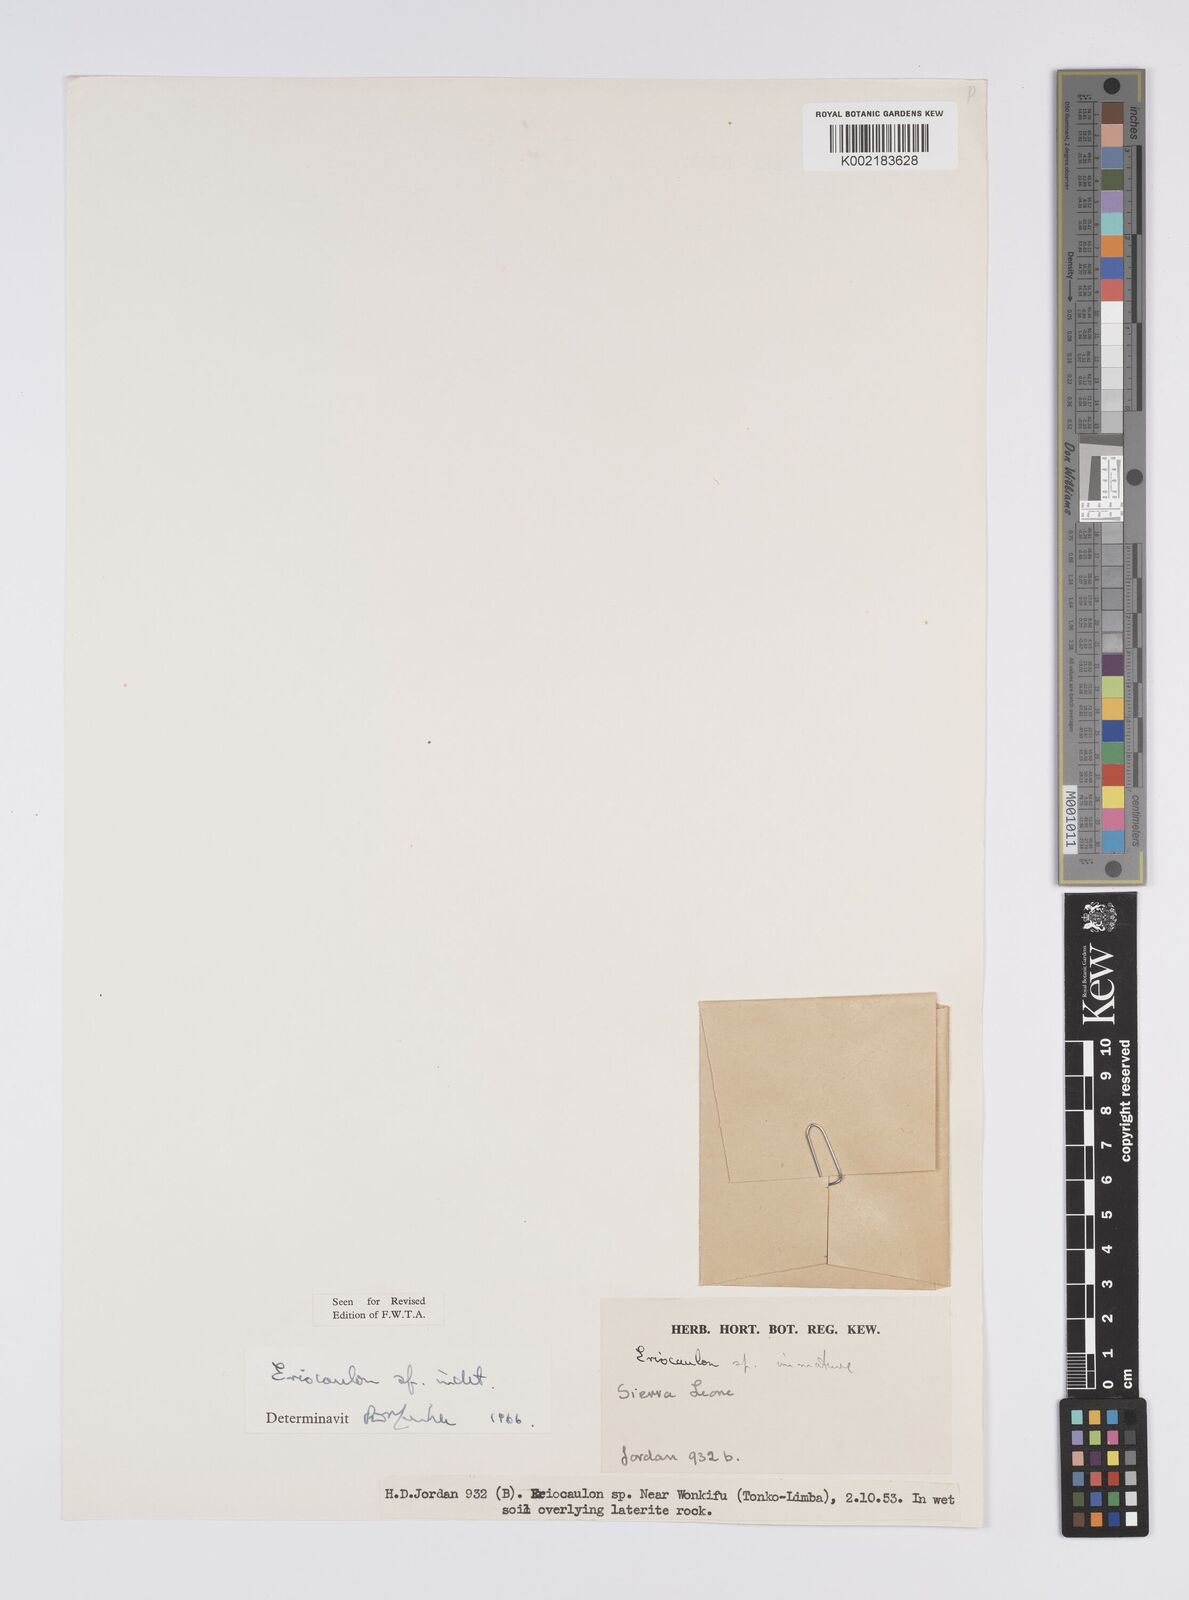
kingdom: Plantae
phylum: Tracheophyta
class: Liliopsida
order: Poales
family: Eriocaulaceae
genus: Eriocaulon
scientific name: Eriocaulon
